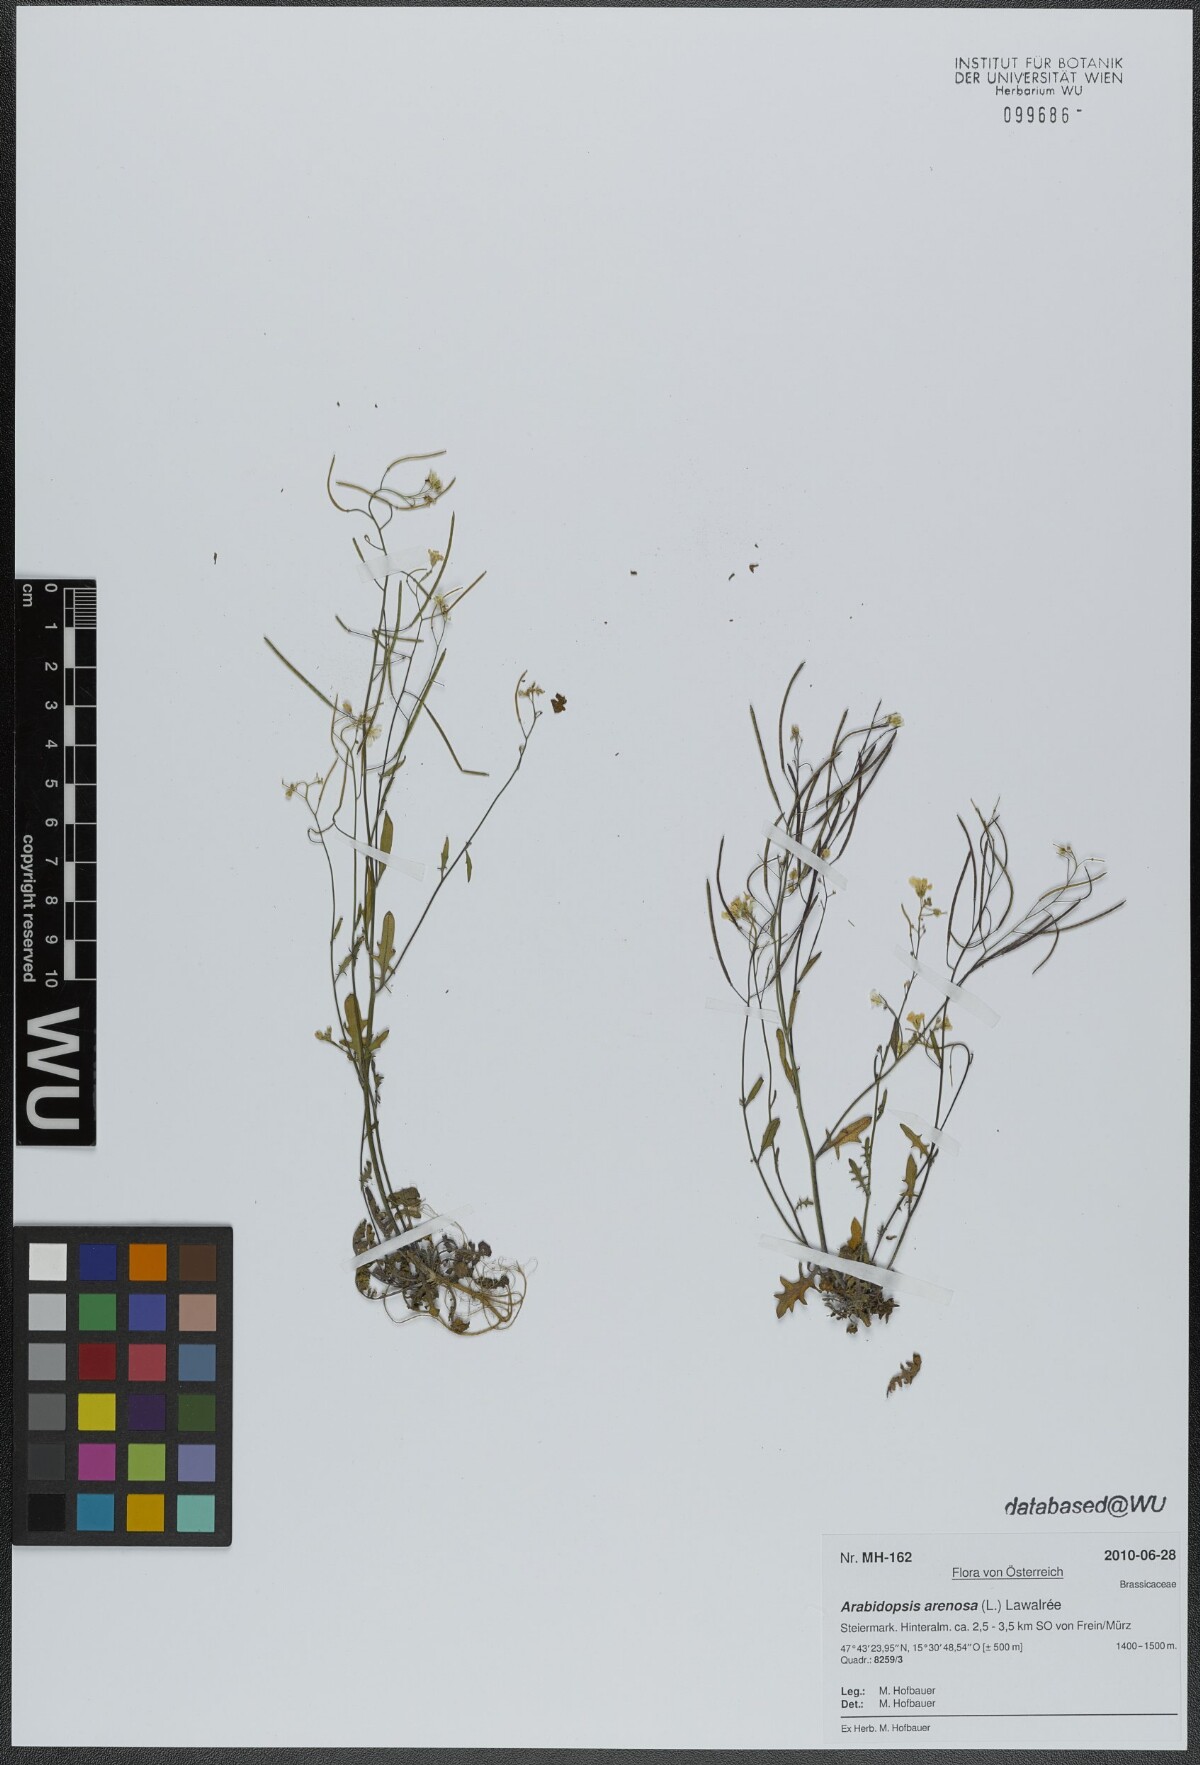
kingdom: Plantae
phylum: Tracheophyta
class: Magnoliopsida
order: Brassicales
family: Brassicaceae
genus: Arabidopsis
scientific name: Arabidopsis arenosa
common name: Sand rock-cress
